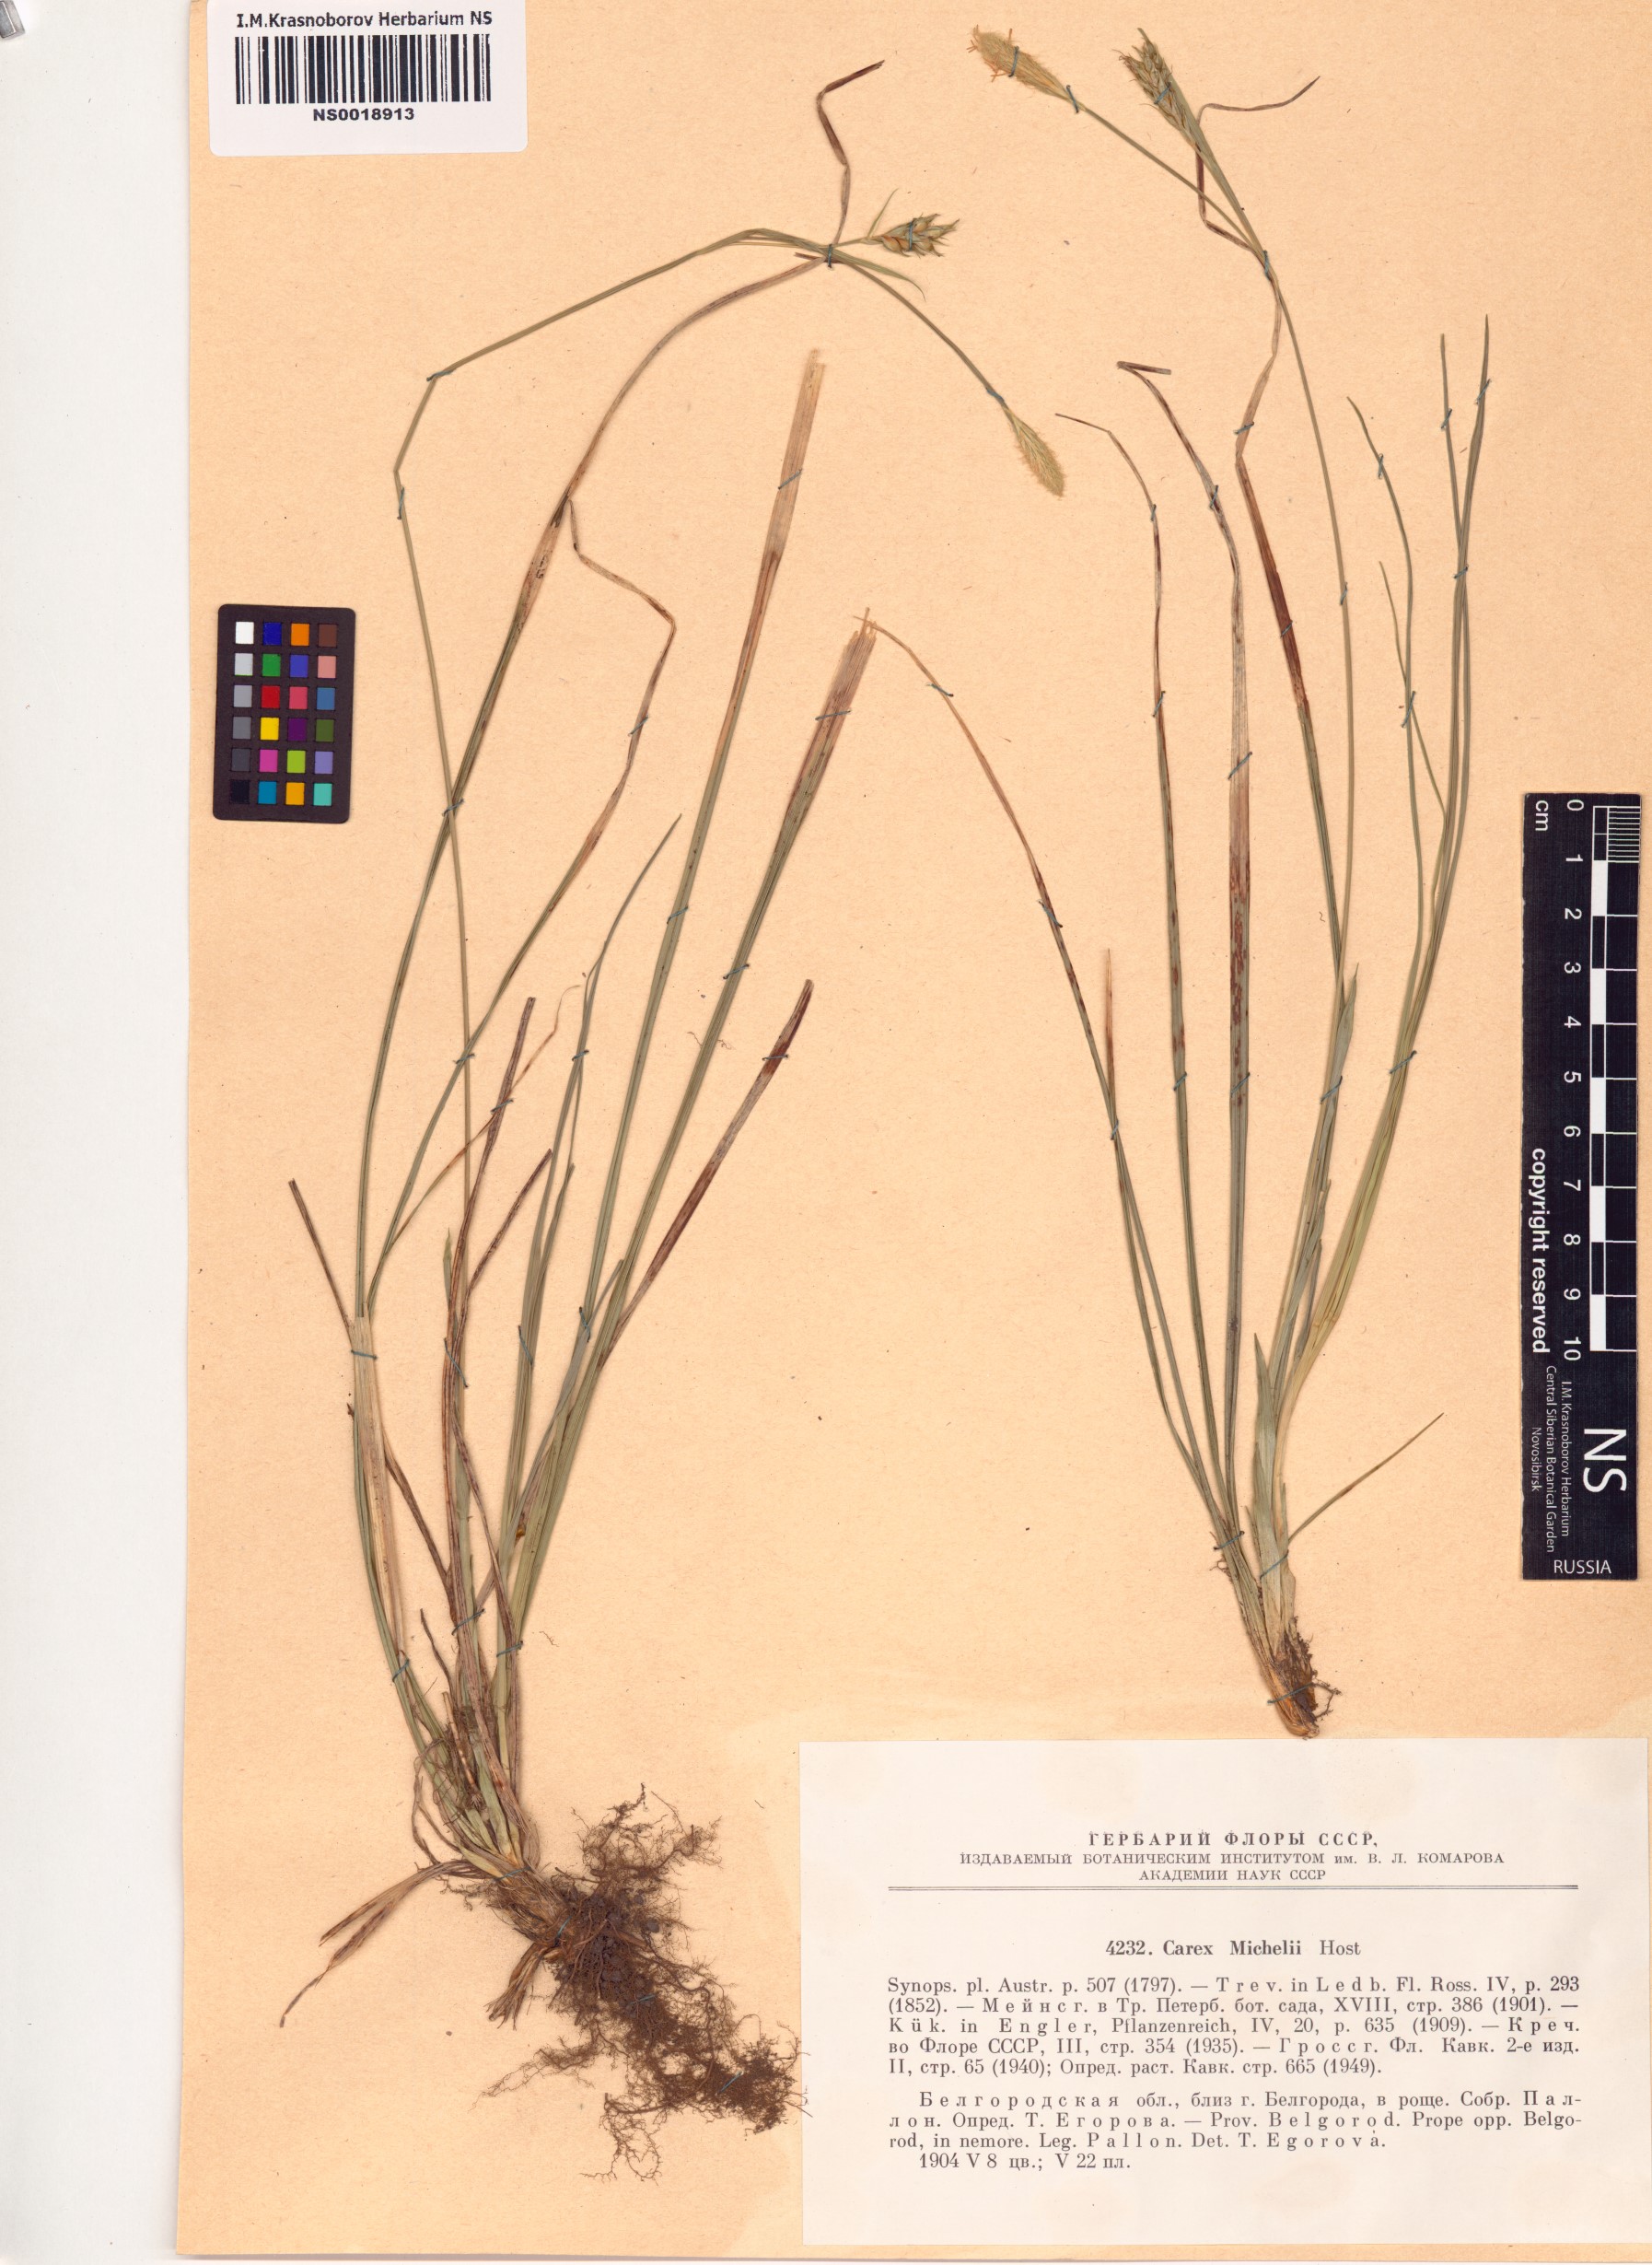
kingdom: Plantae
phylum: Tracheophyta
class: Liliopsida
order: Poales
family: Cyperaceae
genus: Carex
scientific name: Carex michelii
